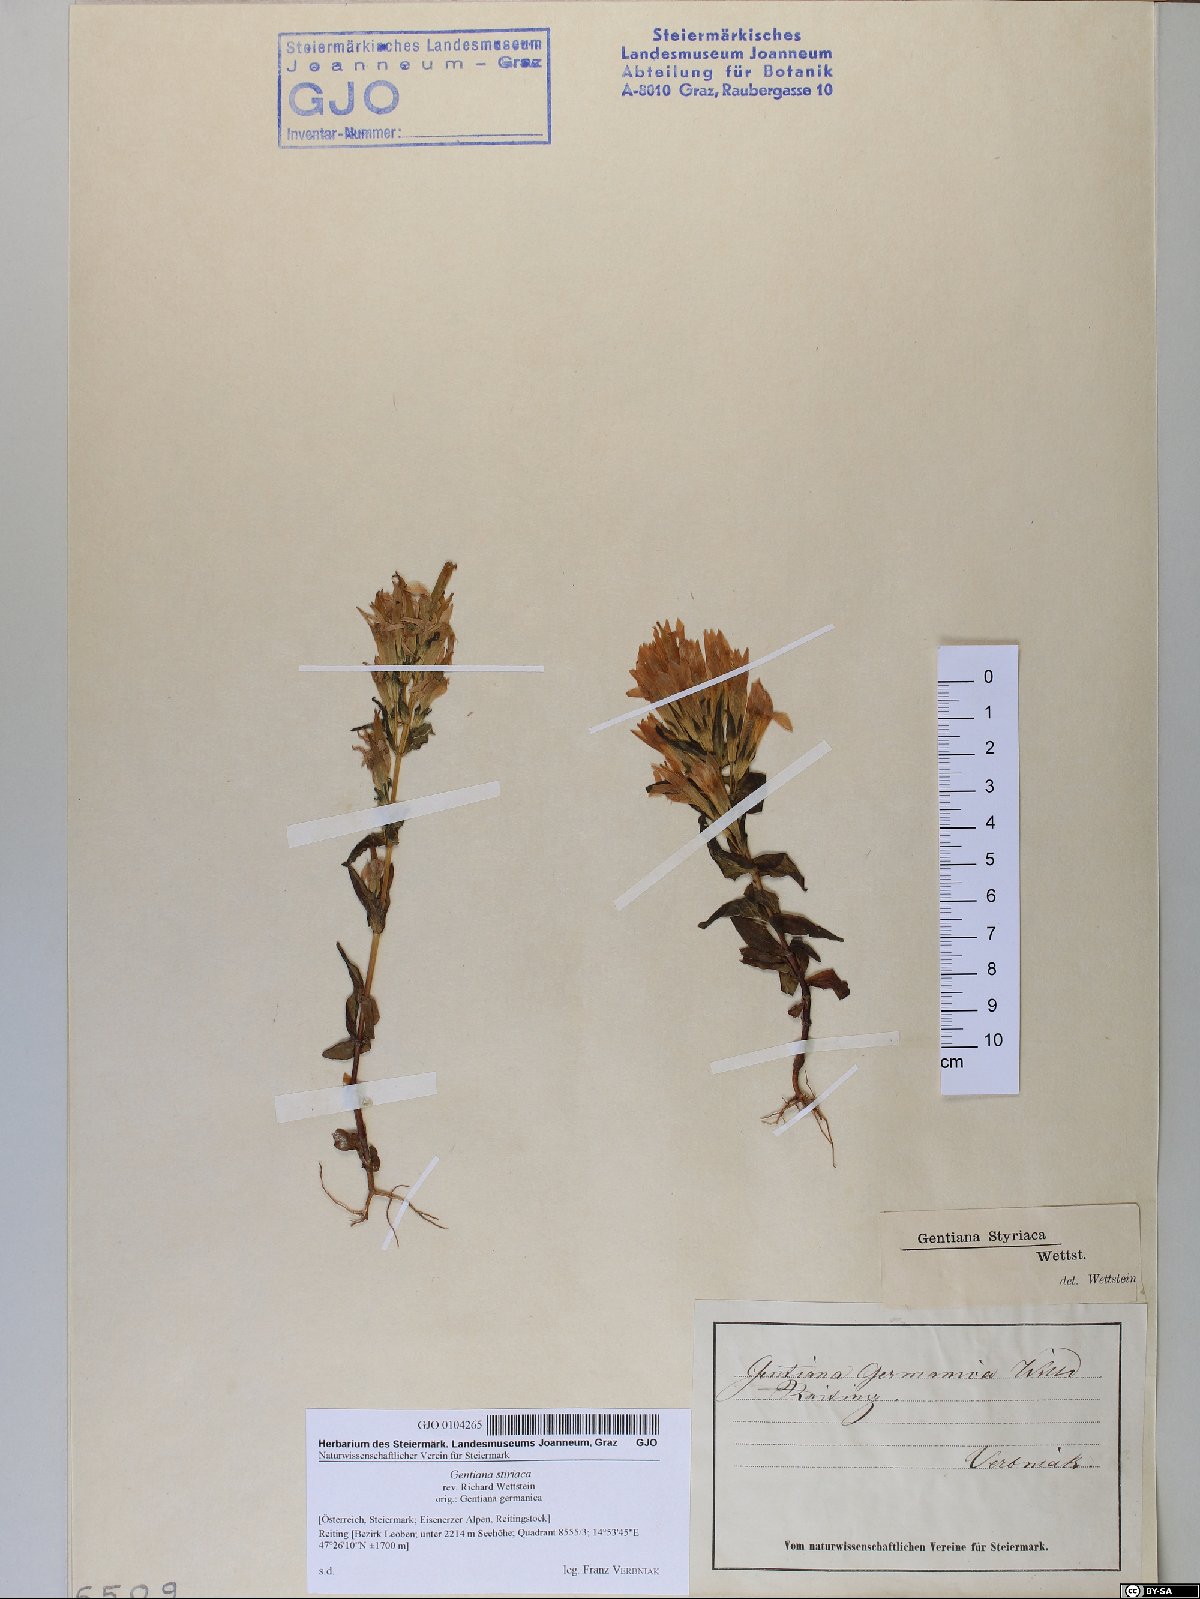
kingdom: Plantae
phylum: Tracheophyta
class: Magnoliopsida
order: Gentianales
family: Gentianaceae
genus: Gentianella
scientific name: Gentianella rhaetica
